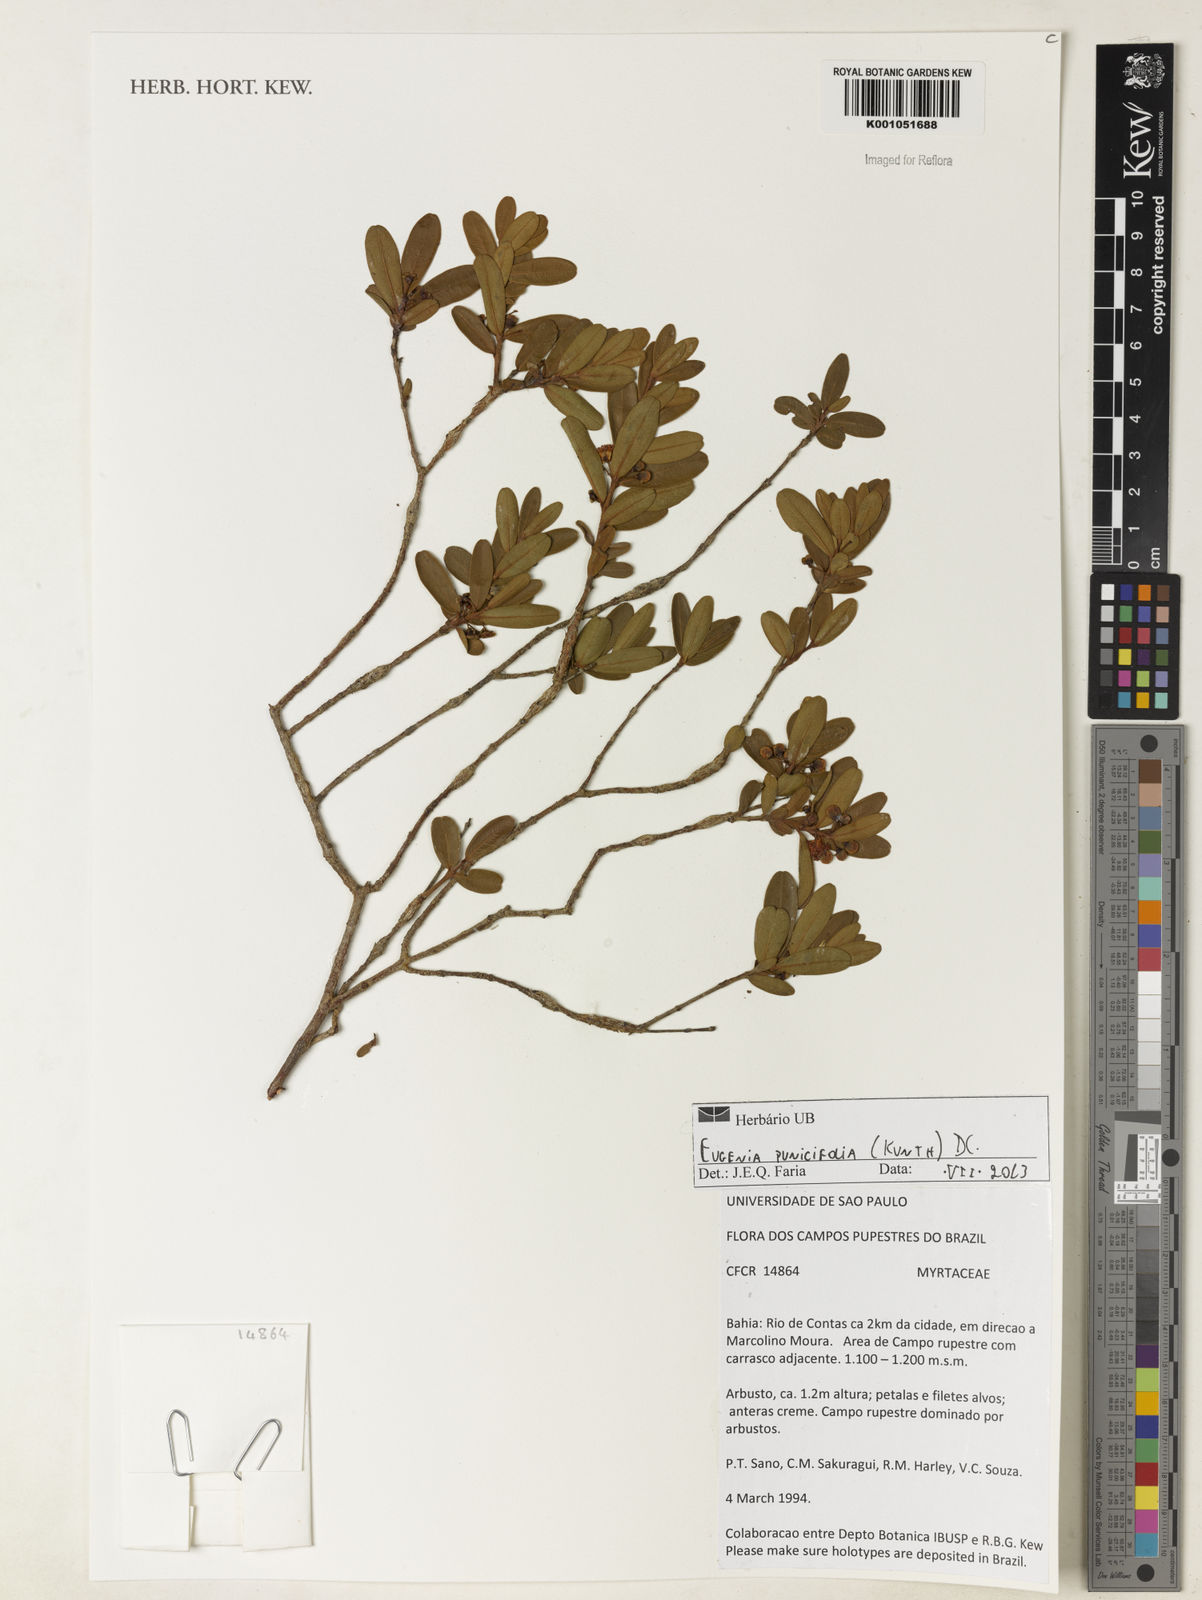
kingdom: Plantae
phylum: Tracheophyta
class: Magnoliopsida
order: Myrtales
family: Myrtaceae
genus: Eugenia
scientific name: Eugenia punicifolia
